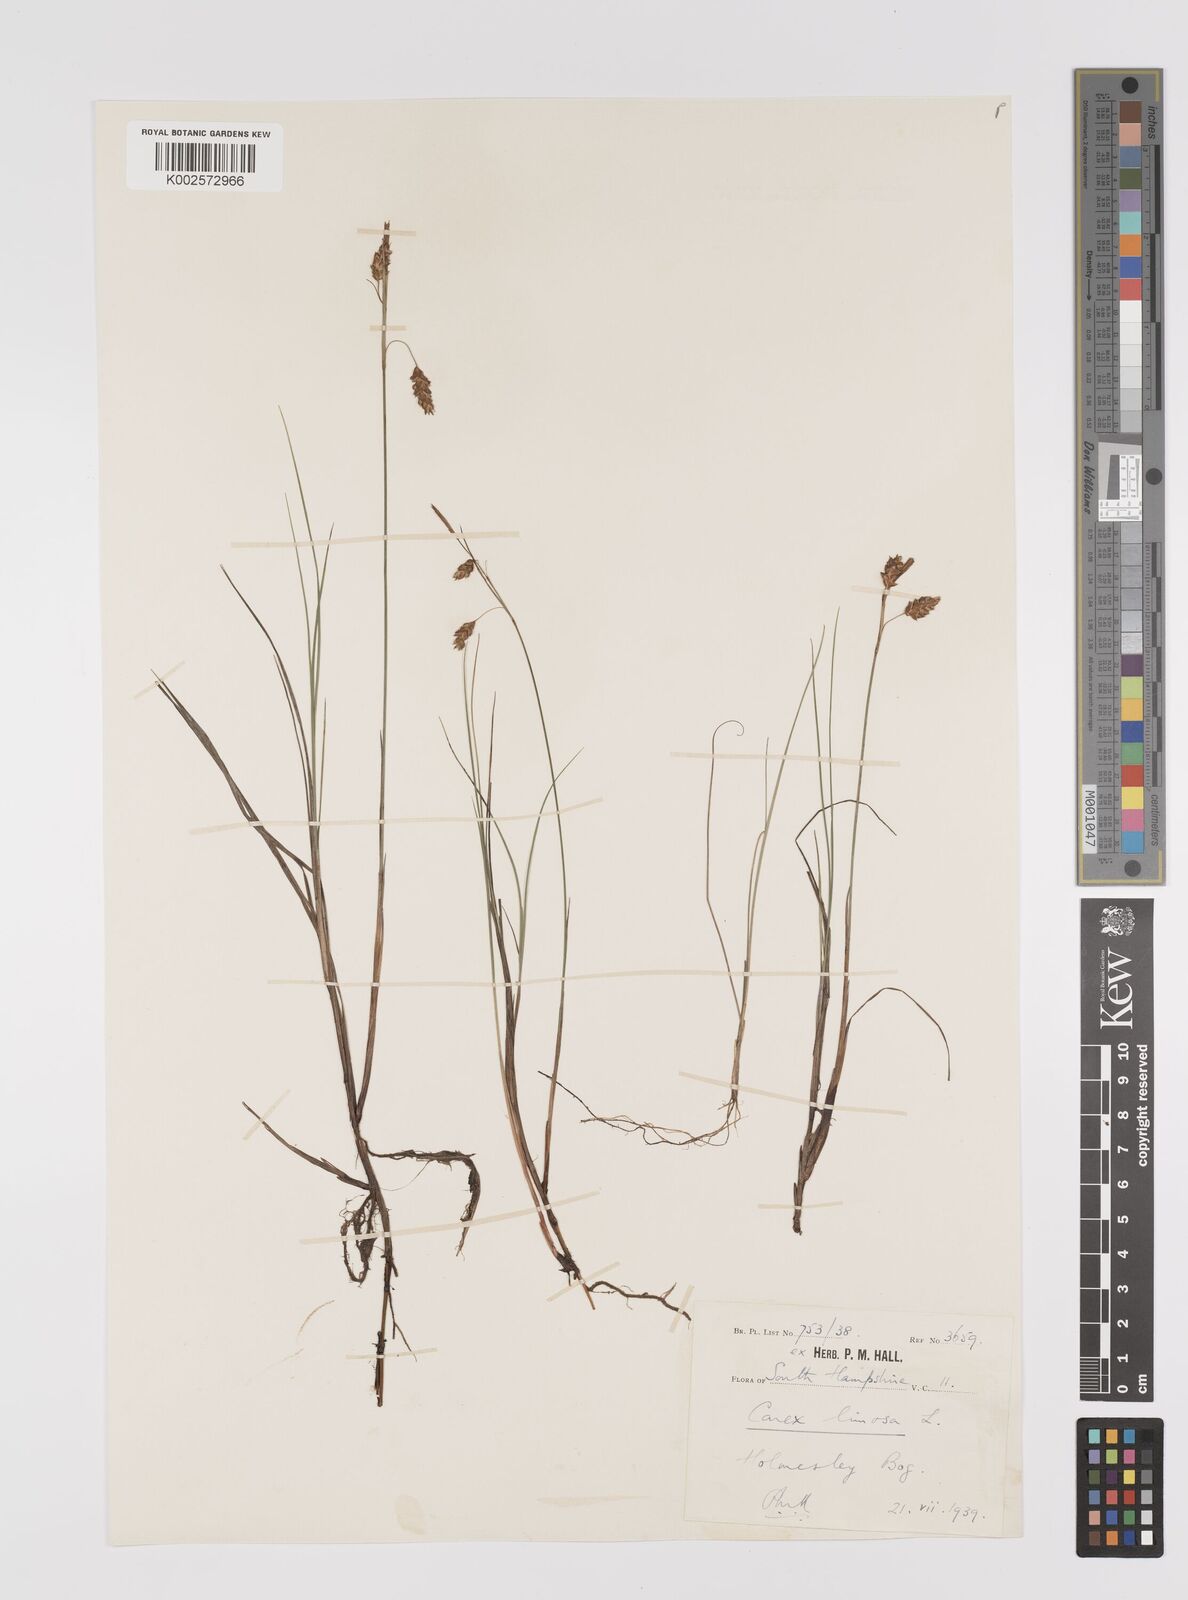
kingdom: Plantae
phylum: Tracheophyta
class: Liliopsida
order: Poales
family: Cyperaceae
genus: Carex
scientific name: Carex limosa
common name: Bog sedge
